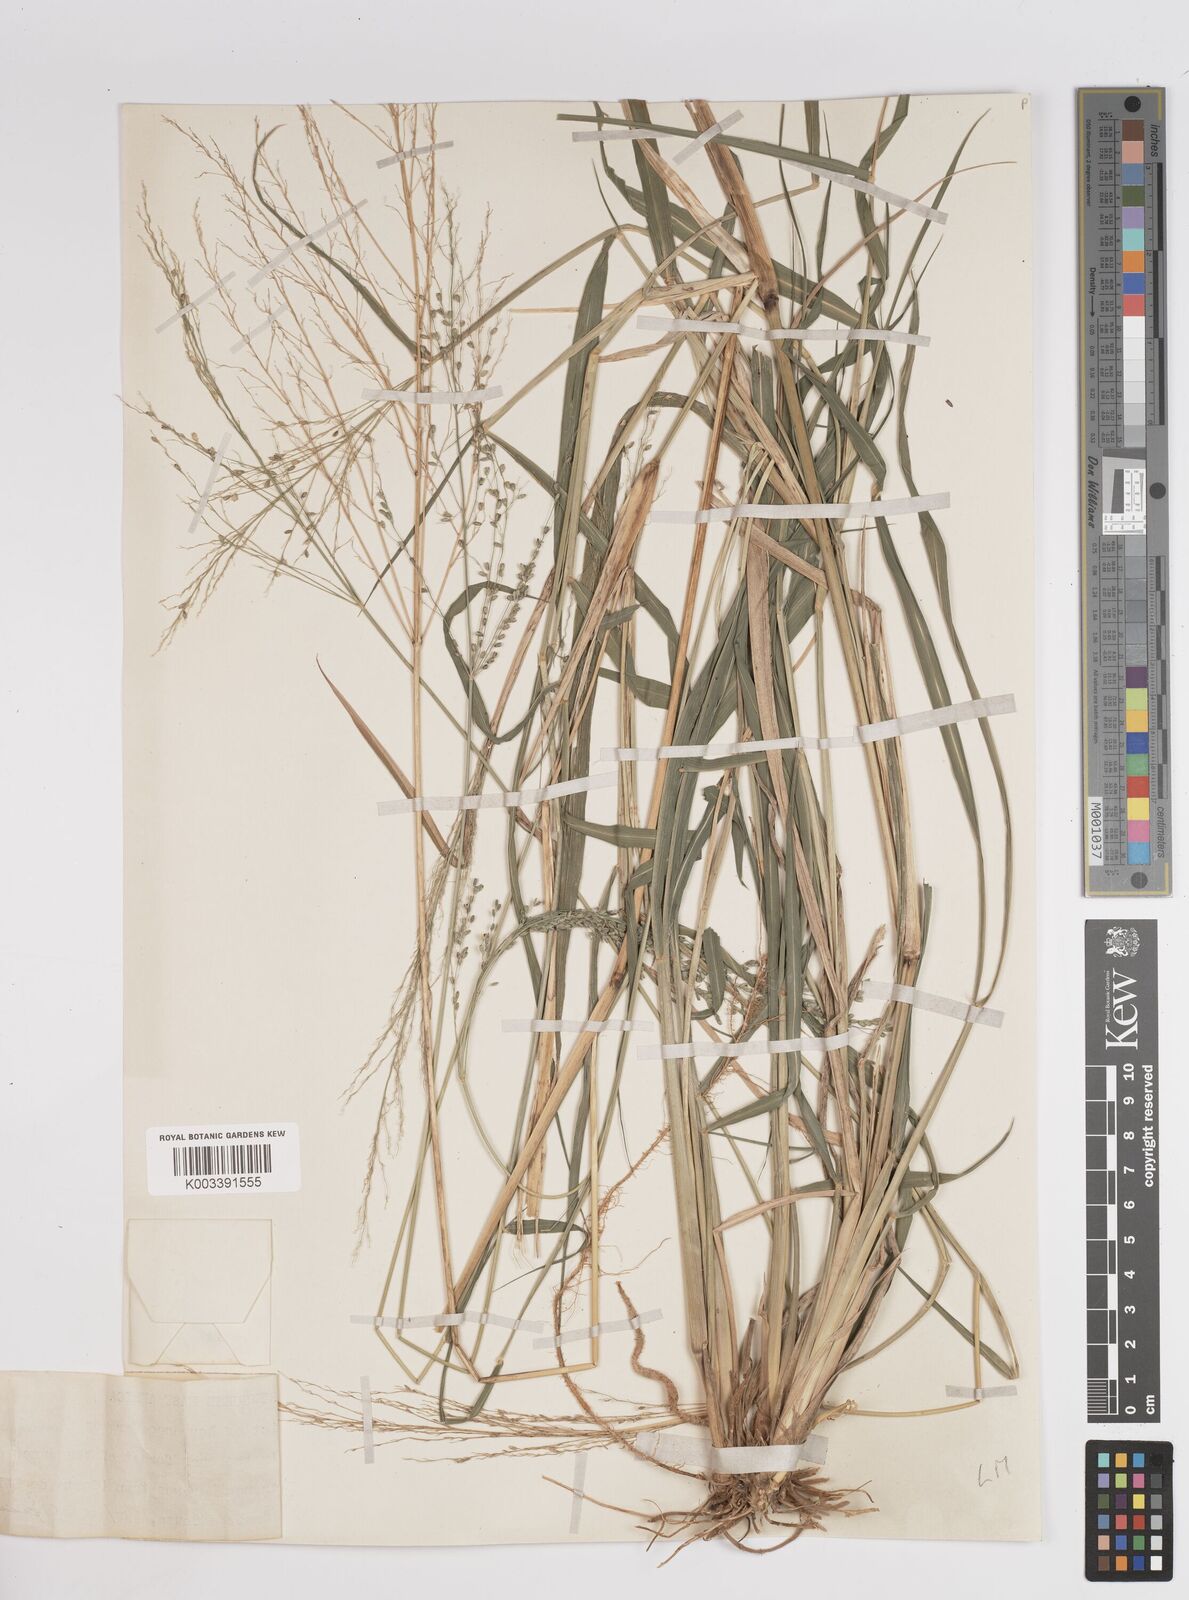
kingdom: Plantae
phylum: Tracheophyta
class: Liliopsida
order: Poales
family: Poaceae
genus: Megathyrsus
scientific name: Megathyrsus maximus
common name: Guineagrass
